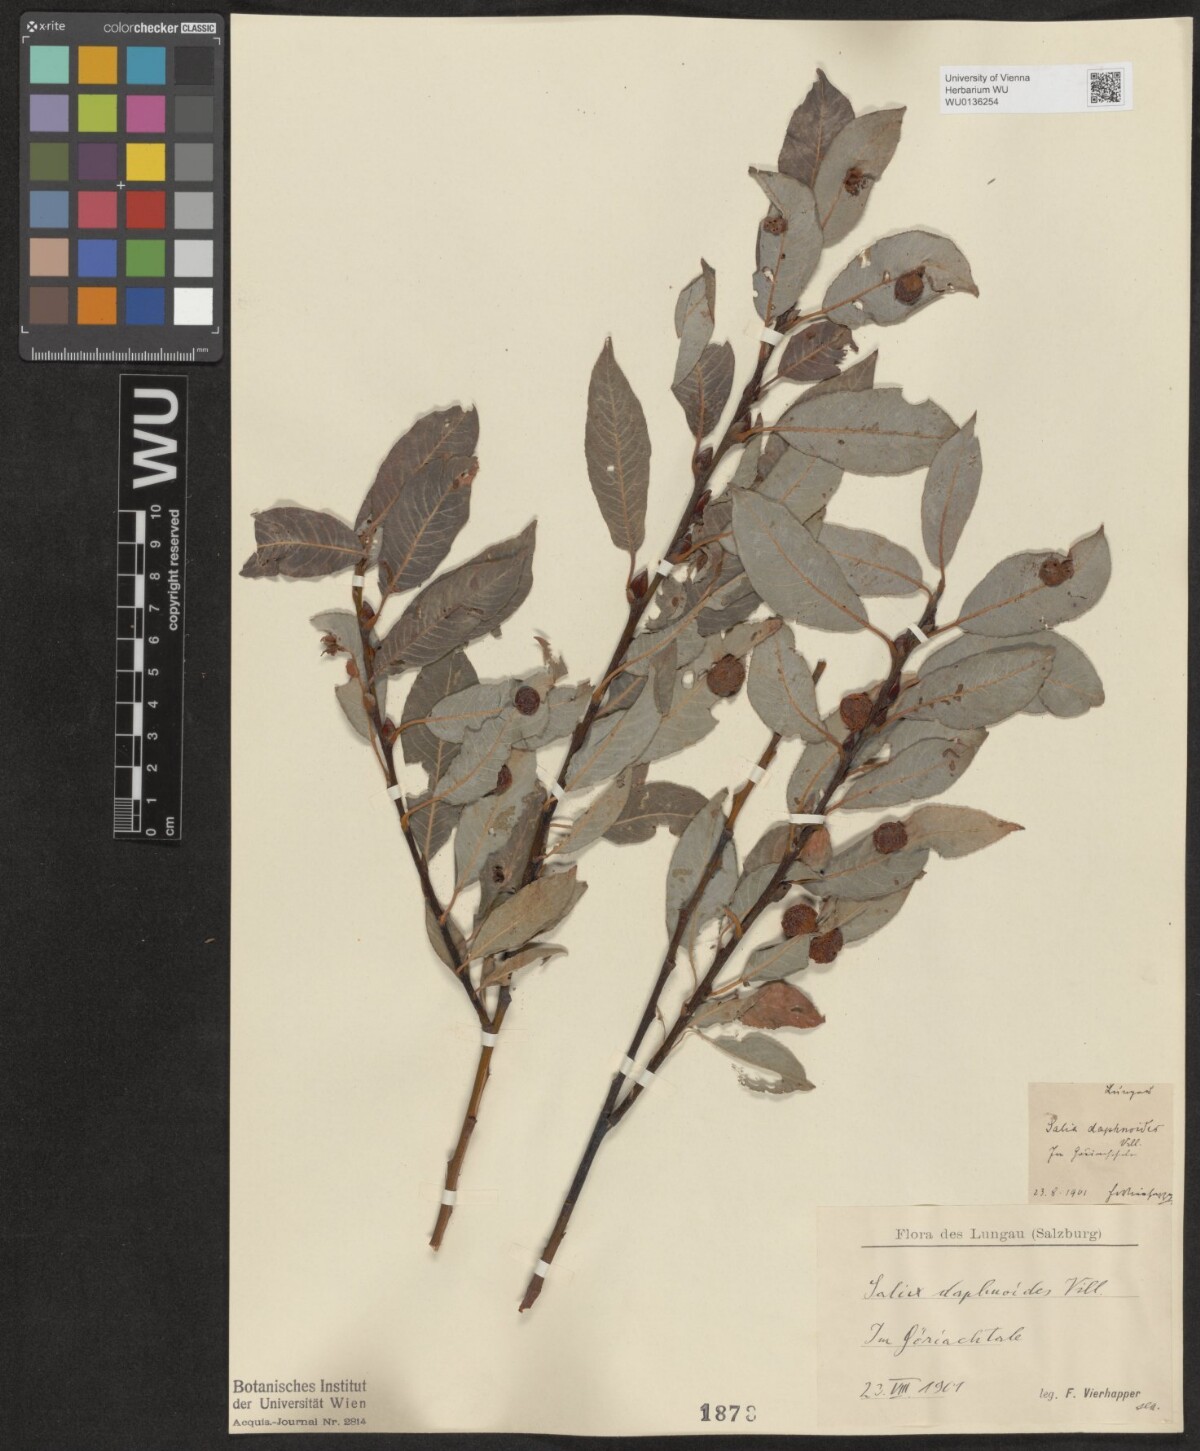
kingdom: Plantae
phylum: Tracheophyta
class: Magnoliopsida
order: Malpighiales
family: Salicaceae
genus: Salix
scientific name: Salix daphnoides
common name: European violet-willow
